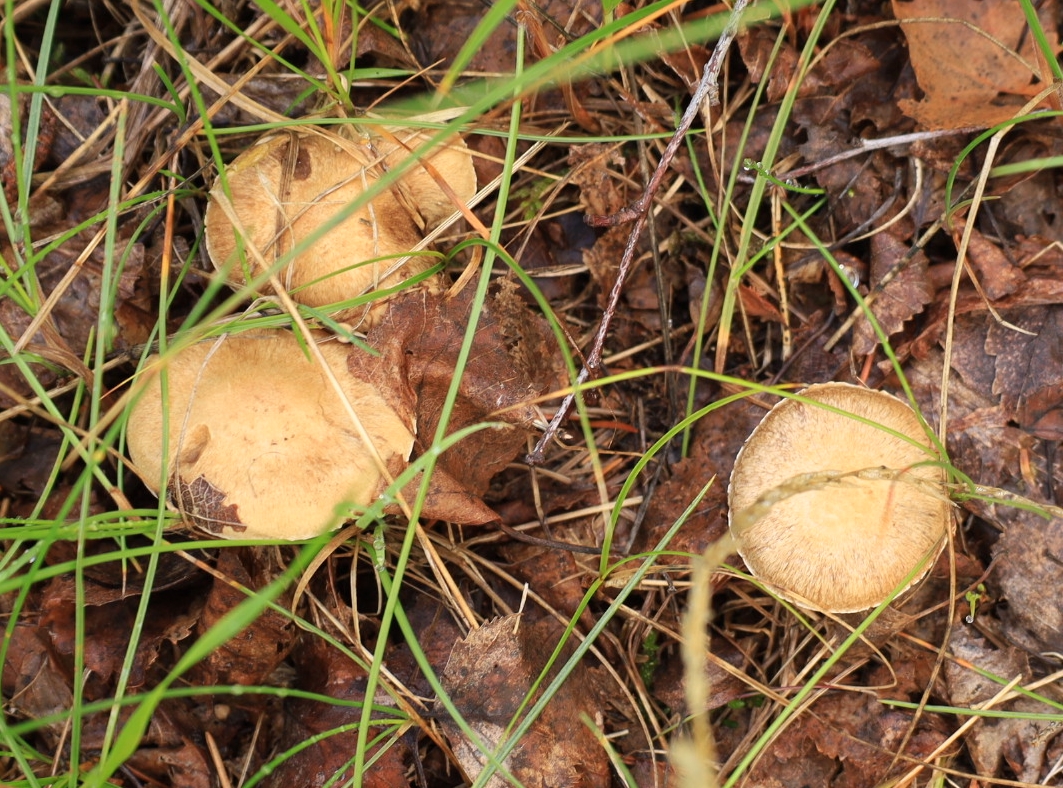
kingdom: Fungi
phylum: Basidiomycota
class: Agaricomycetes
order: Agaricales
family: Inocybaceae
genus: Inocybe
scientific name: Inocybe
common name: trævlhat
